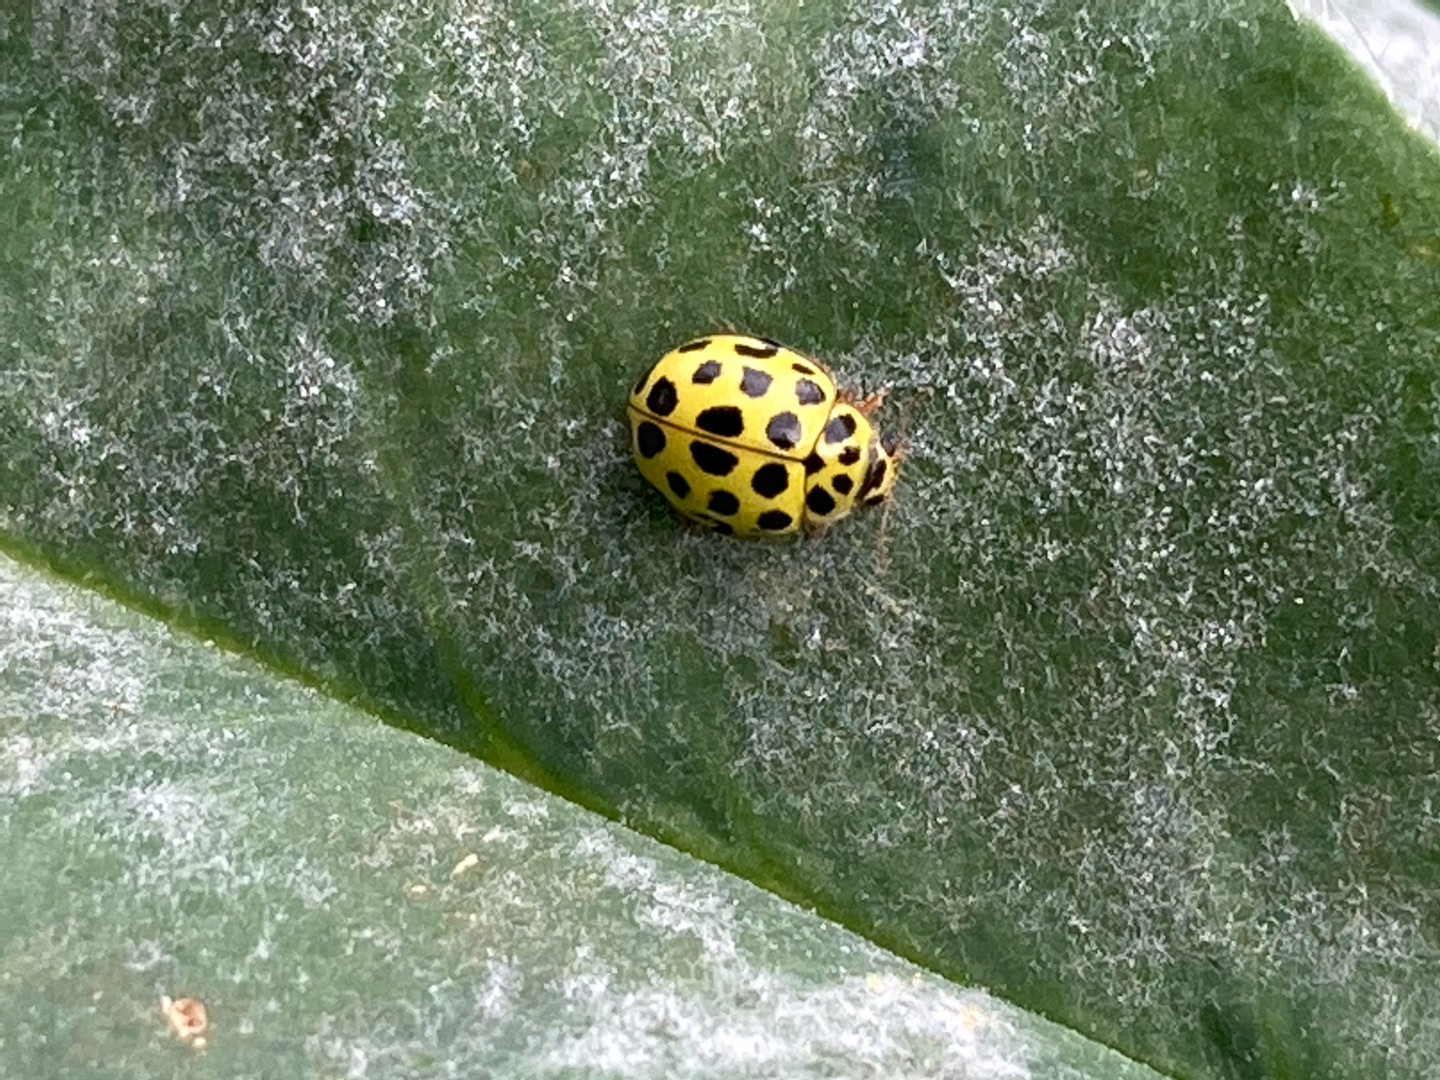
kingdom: Animalia
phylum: Arthropoda
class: Insecta
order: Coleoptera
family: Coccinellidae
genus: Psyllobora
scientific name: Psyllobora vigintiduopunctata
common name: Toogtyveplettet mariehøne
